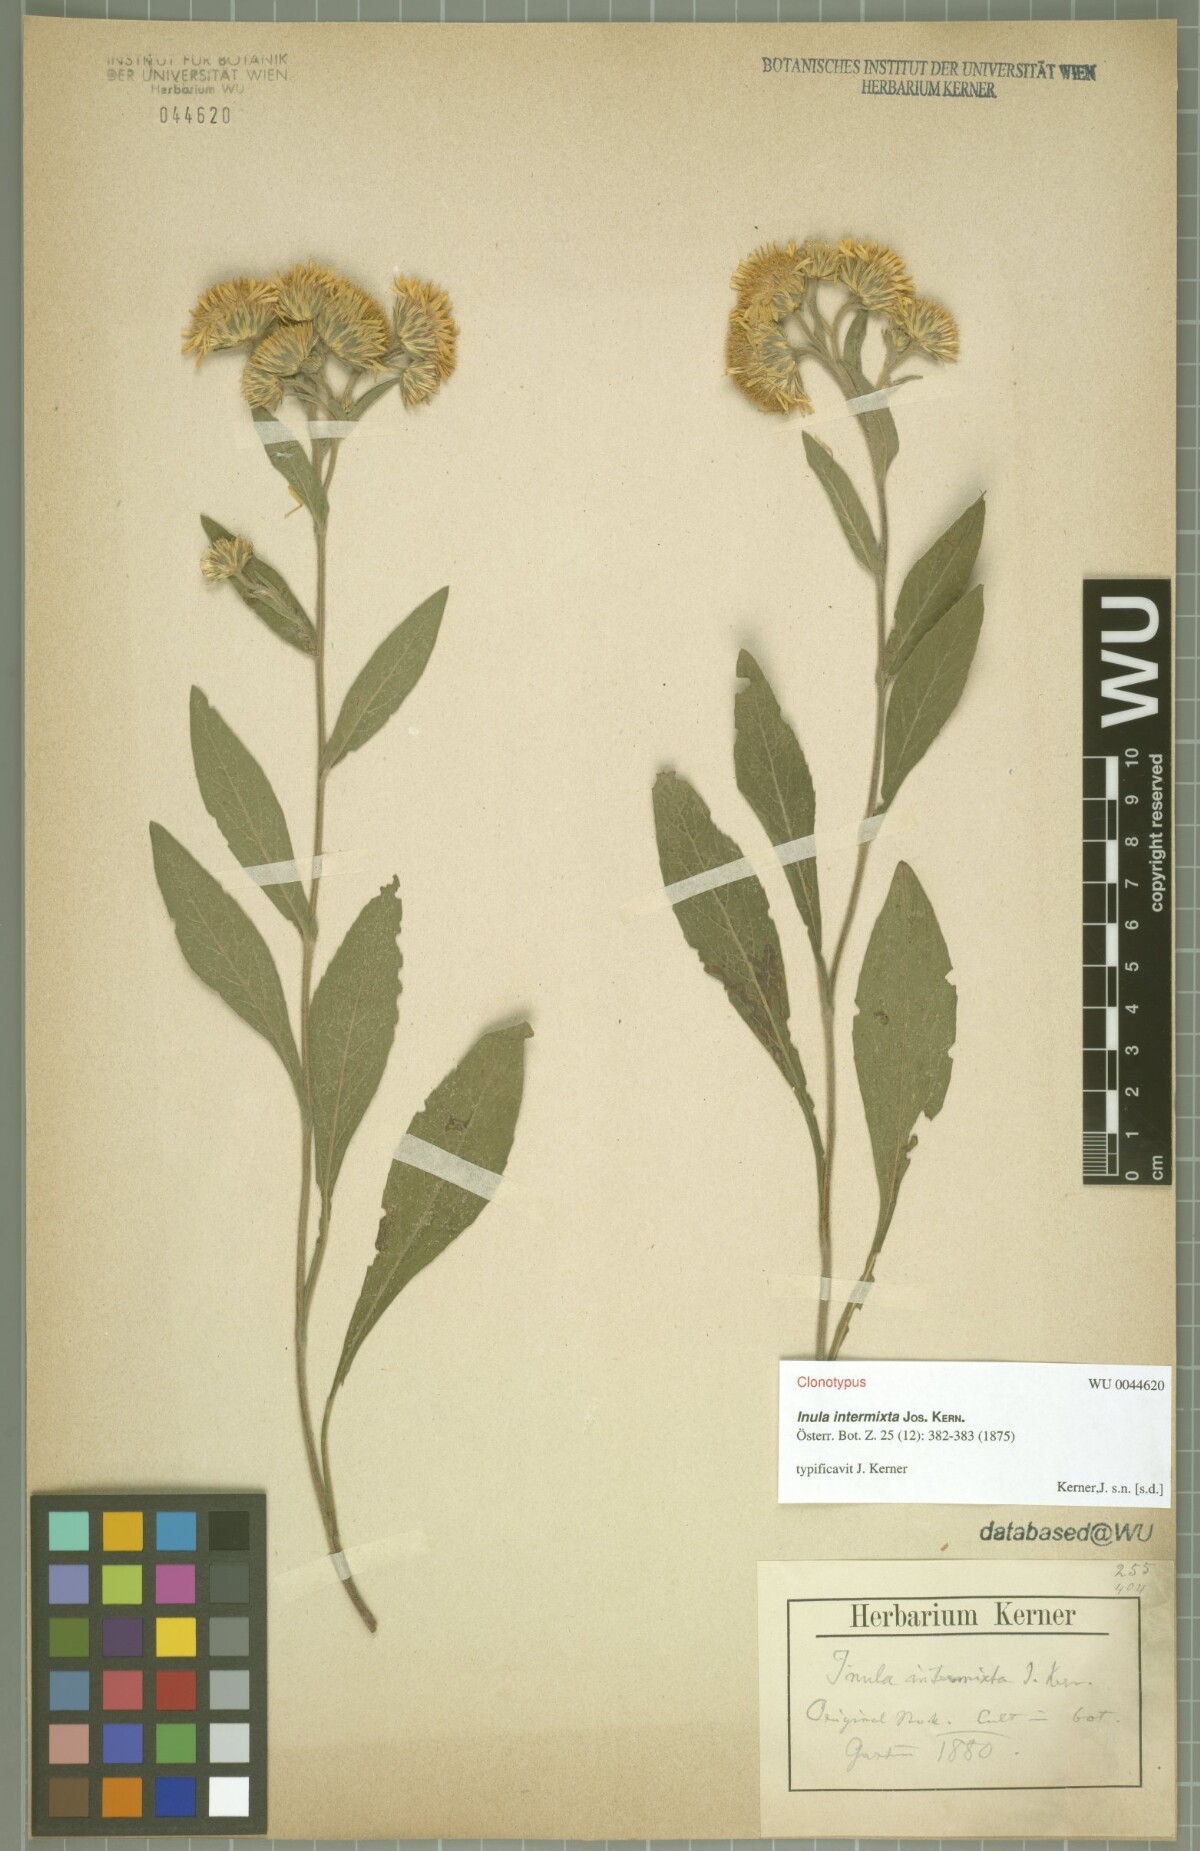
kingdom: Plantae
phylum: Tracheophyta
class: Magnoliopsida
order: Asterales
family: Asteraceae
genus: Inula
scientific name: Inula intermixta
